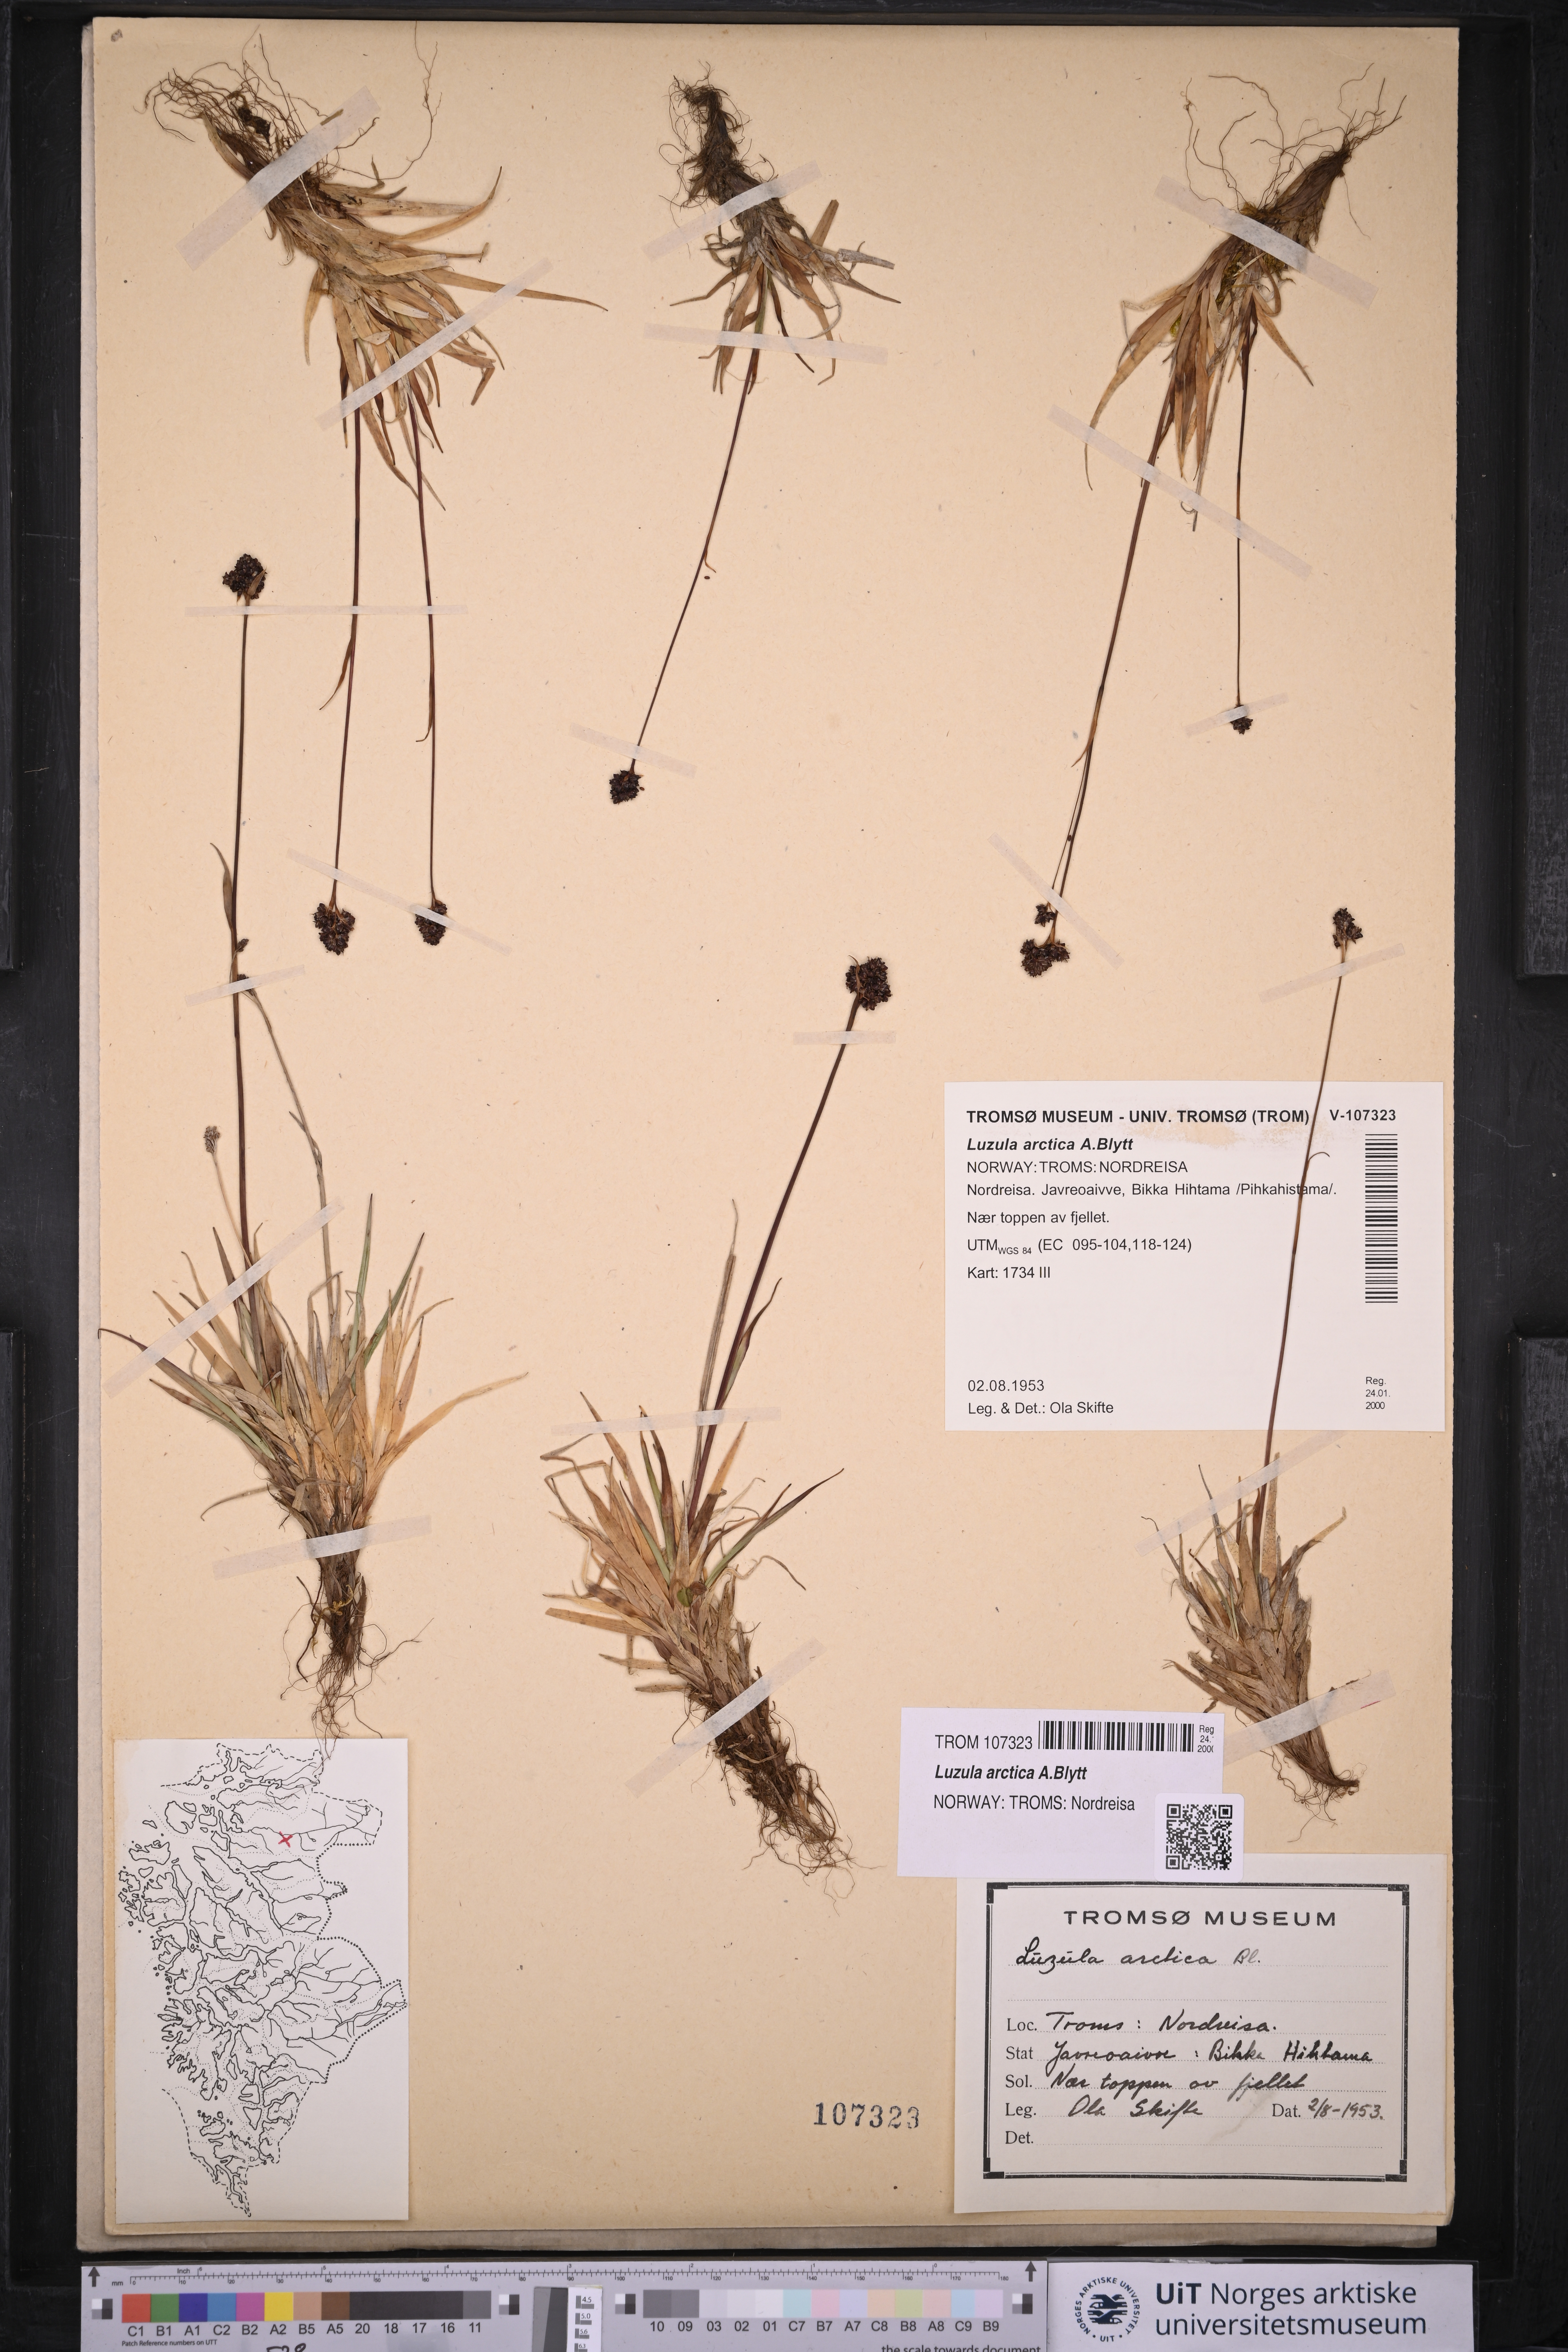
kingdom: Plantae
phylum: Tracheophyta
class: Liliopsida
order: Poales
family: Juncaceae
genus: Luzula
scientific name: Luzula nivalis
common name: Arctic woodrush
